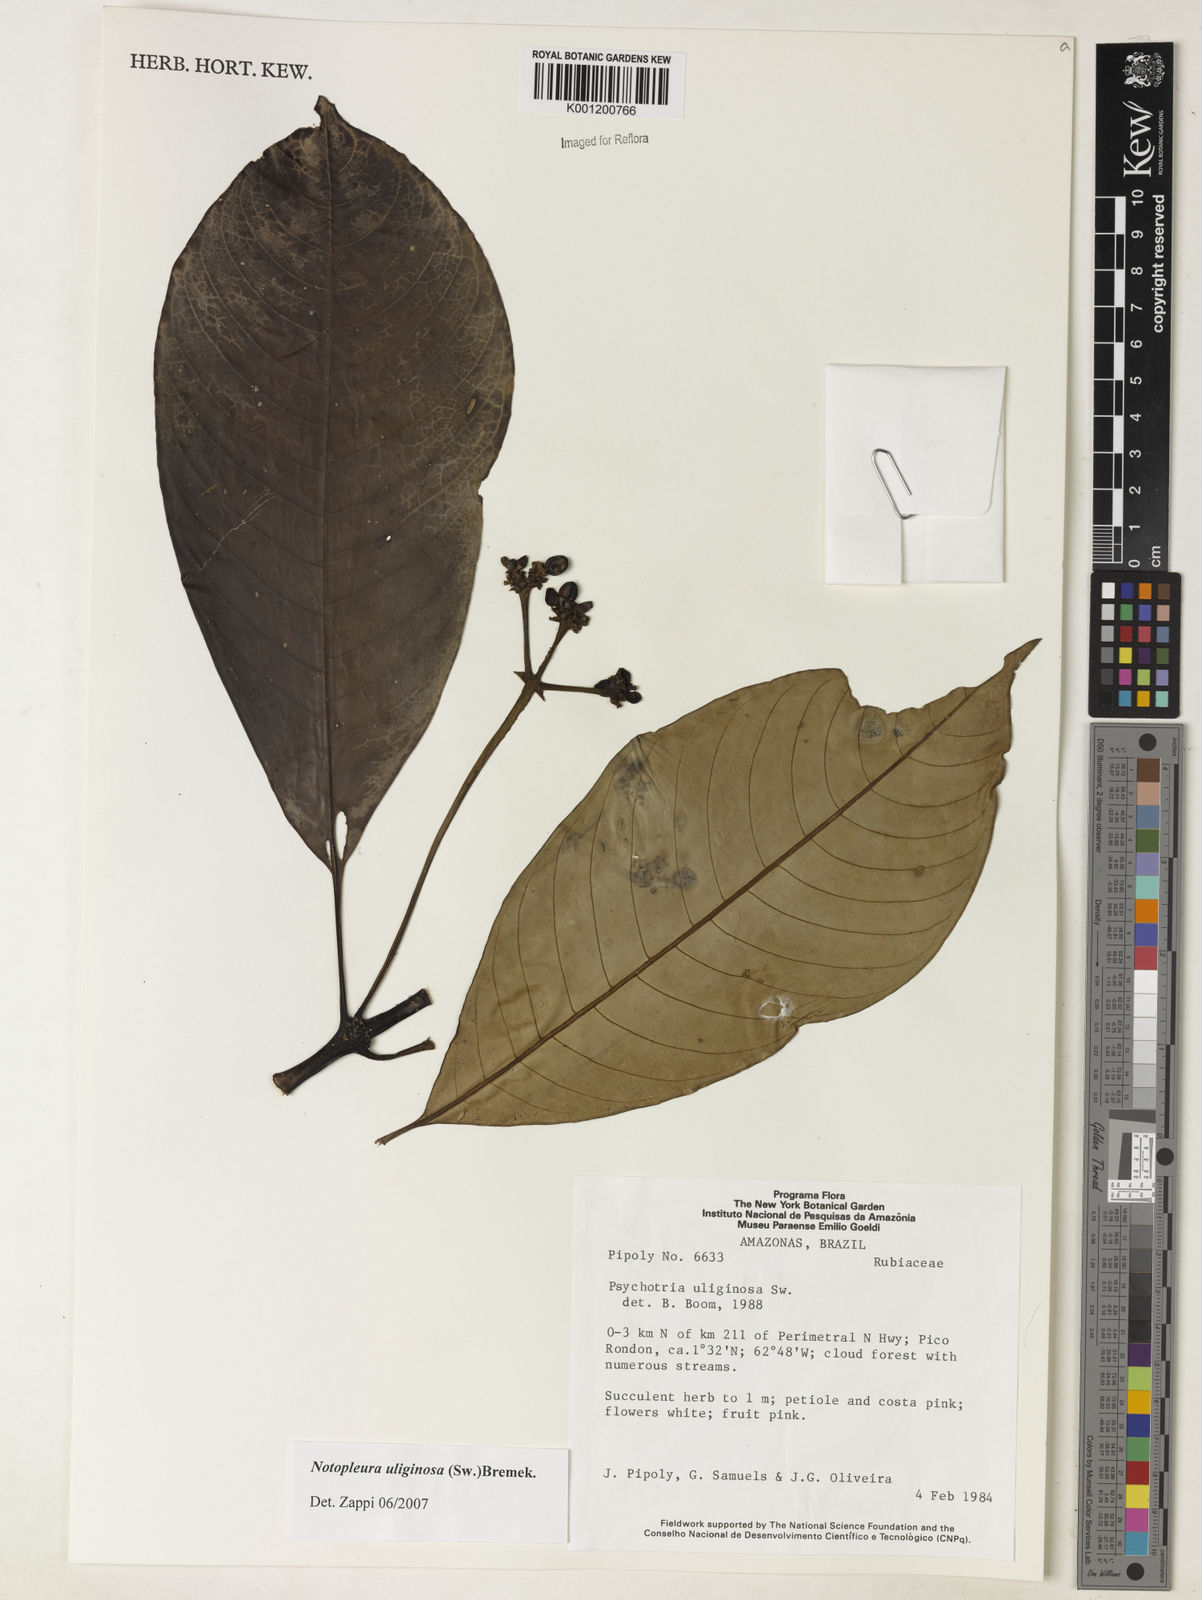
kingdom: Plantae
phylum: Tracheophyta
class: Magnoliopsida
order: Gentianales
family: Rubiaceae
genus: Notopleura
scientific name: Notopleura uliginosa
